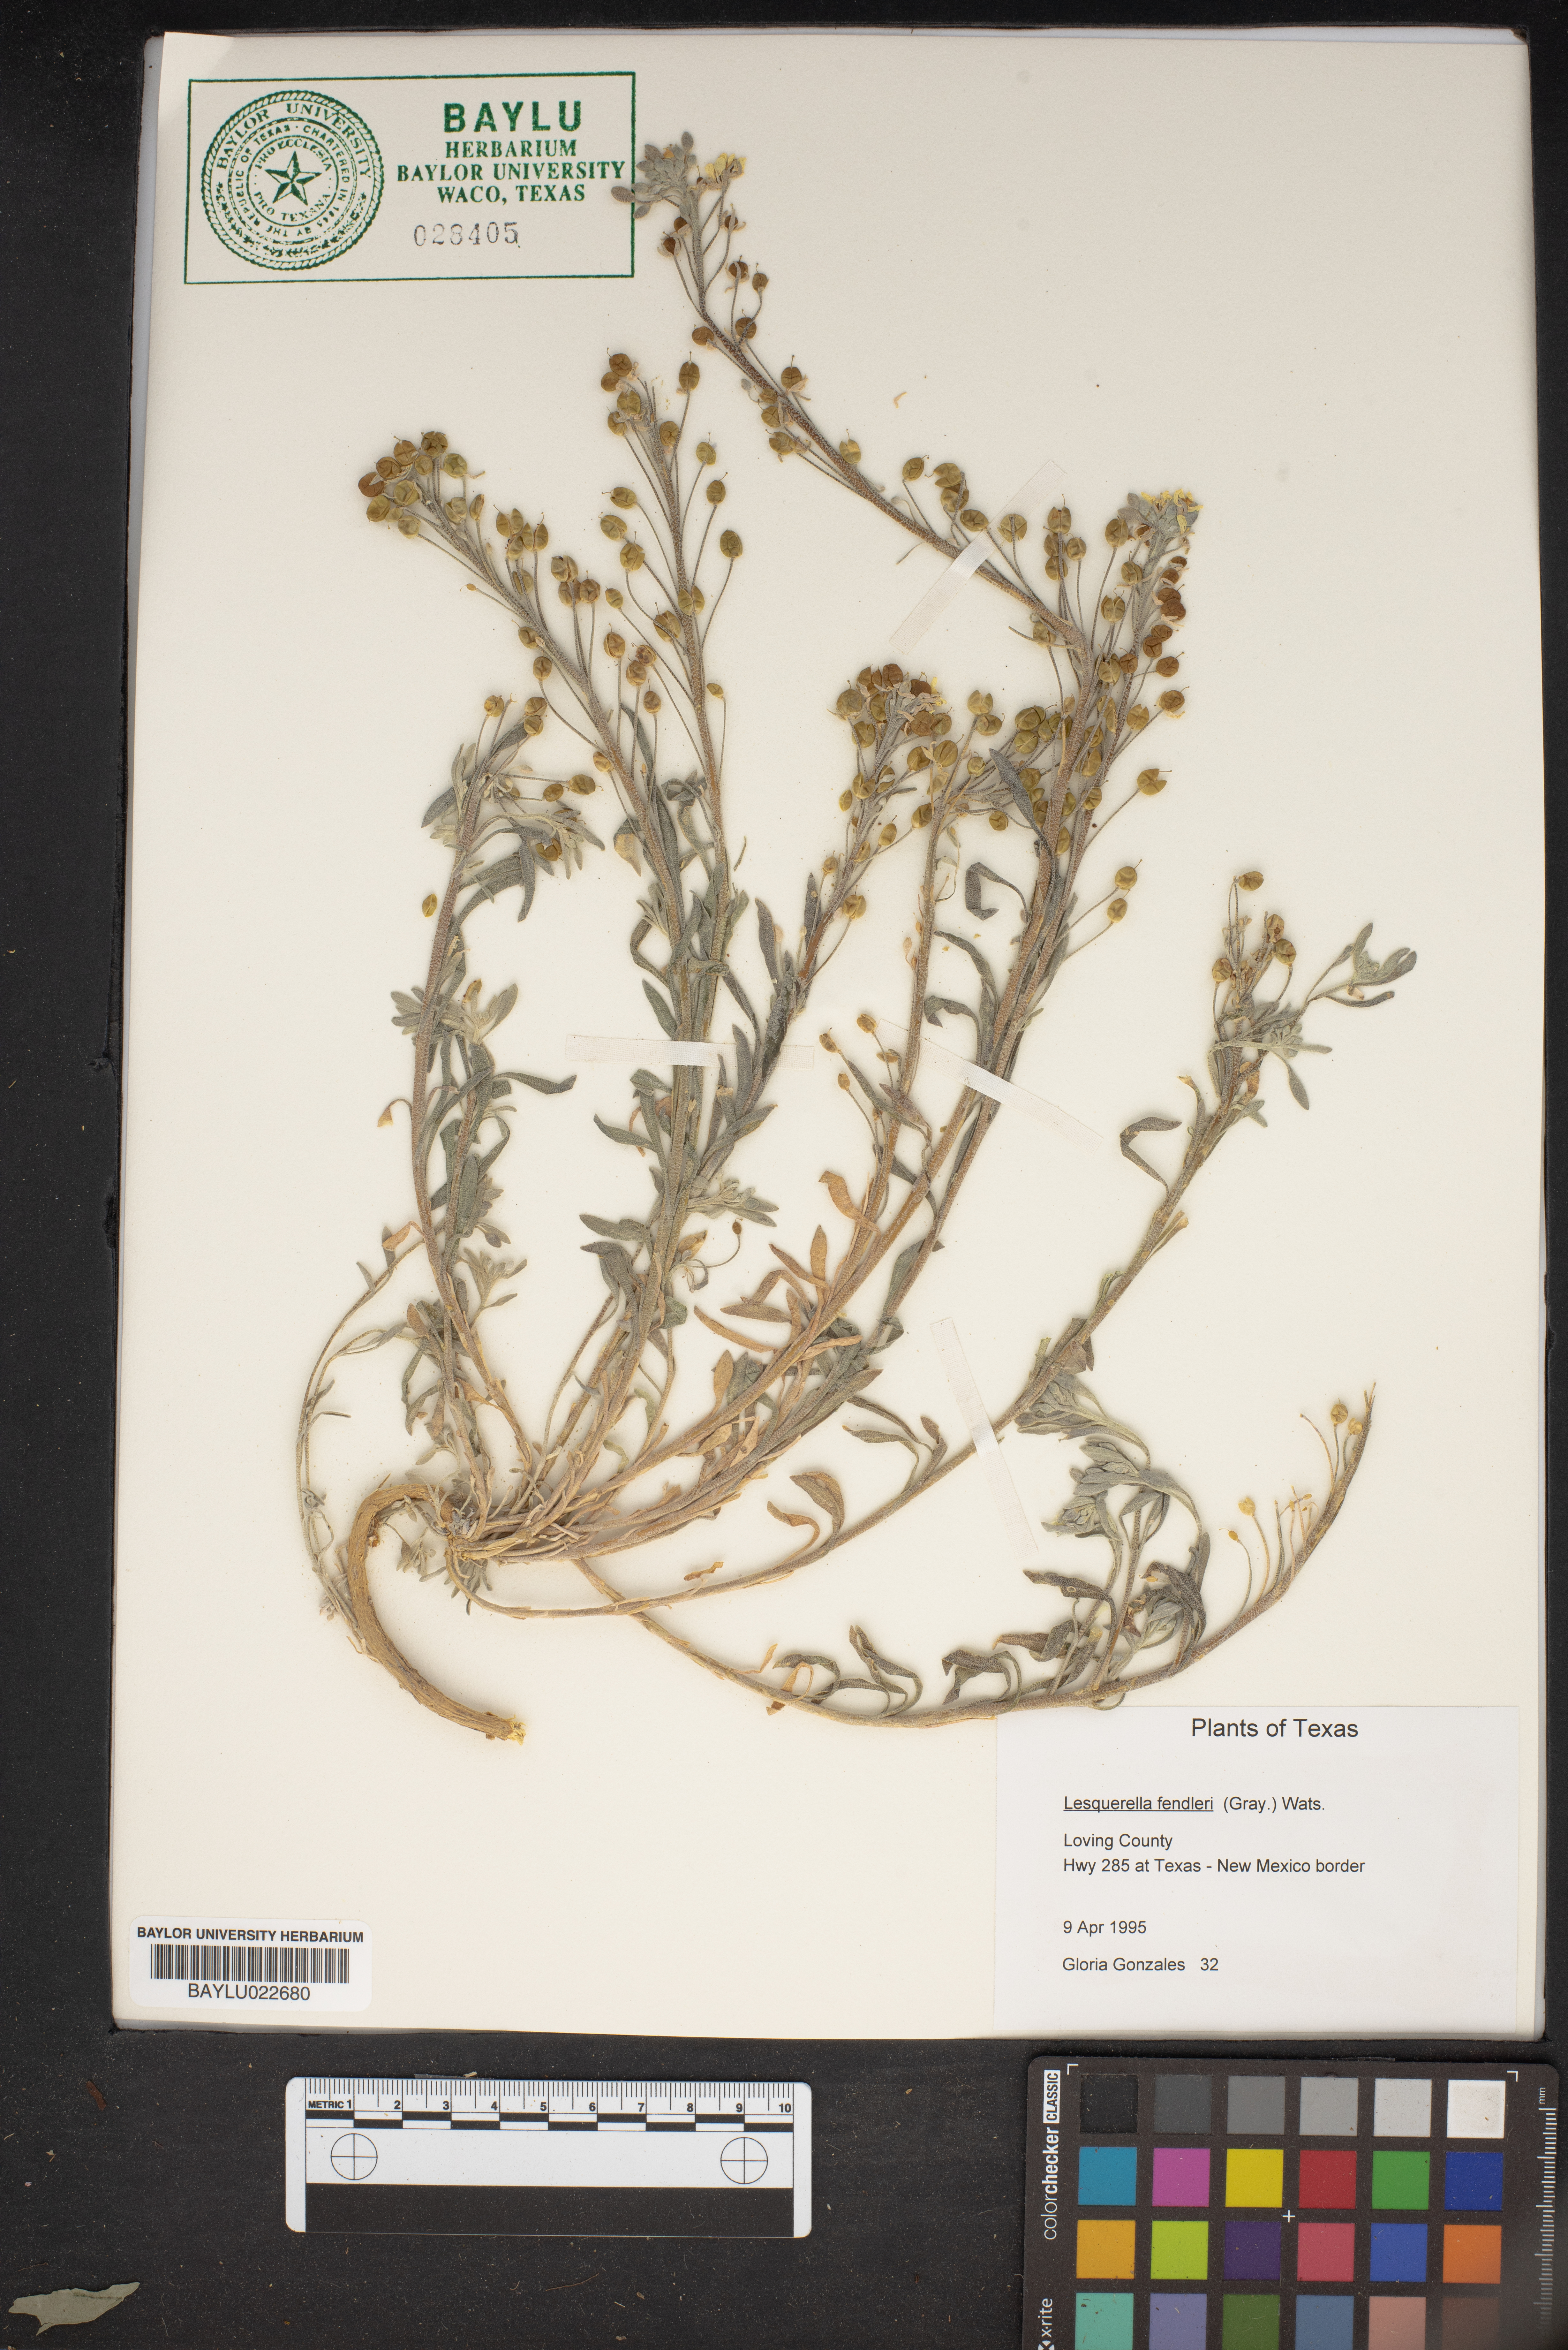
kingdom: Plantae
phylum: Tracheophyta
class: Magnoliopsida
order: Brassicales
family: Brassicaceae
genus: Physaria
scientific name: Physaria fendleri
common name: Fendler's bladderpod
